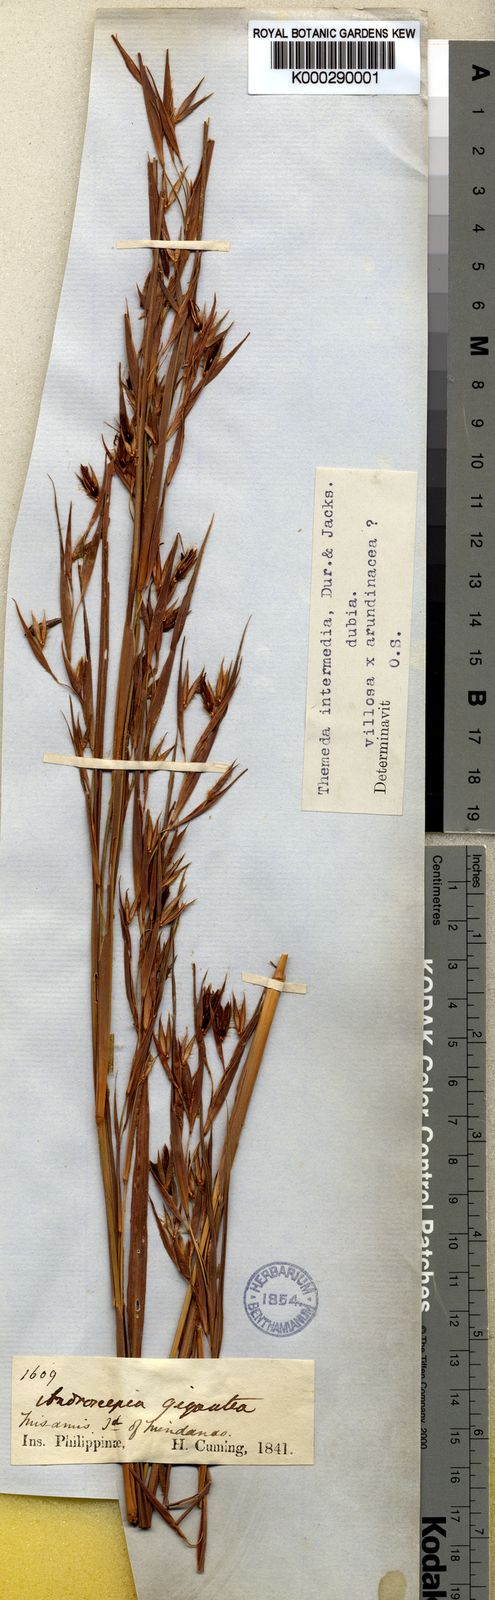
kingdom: Plantae
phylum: Tracheophyta
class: Liliopsida
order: Poales
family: Poaceae
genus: Themeda
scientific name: Themeda intermedia
